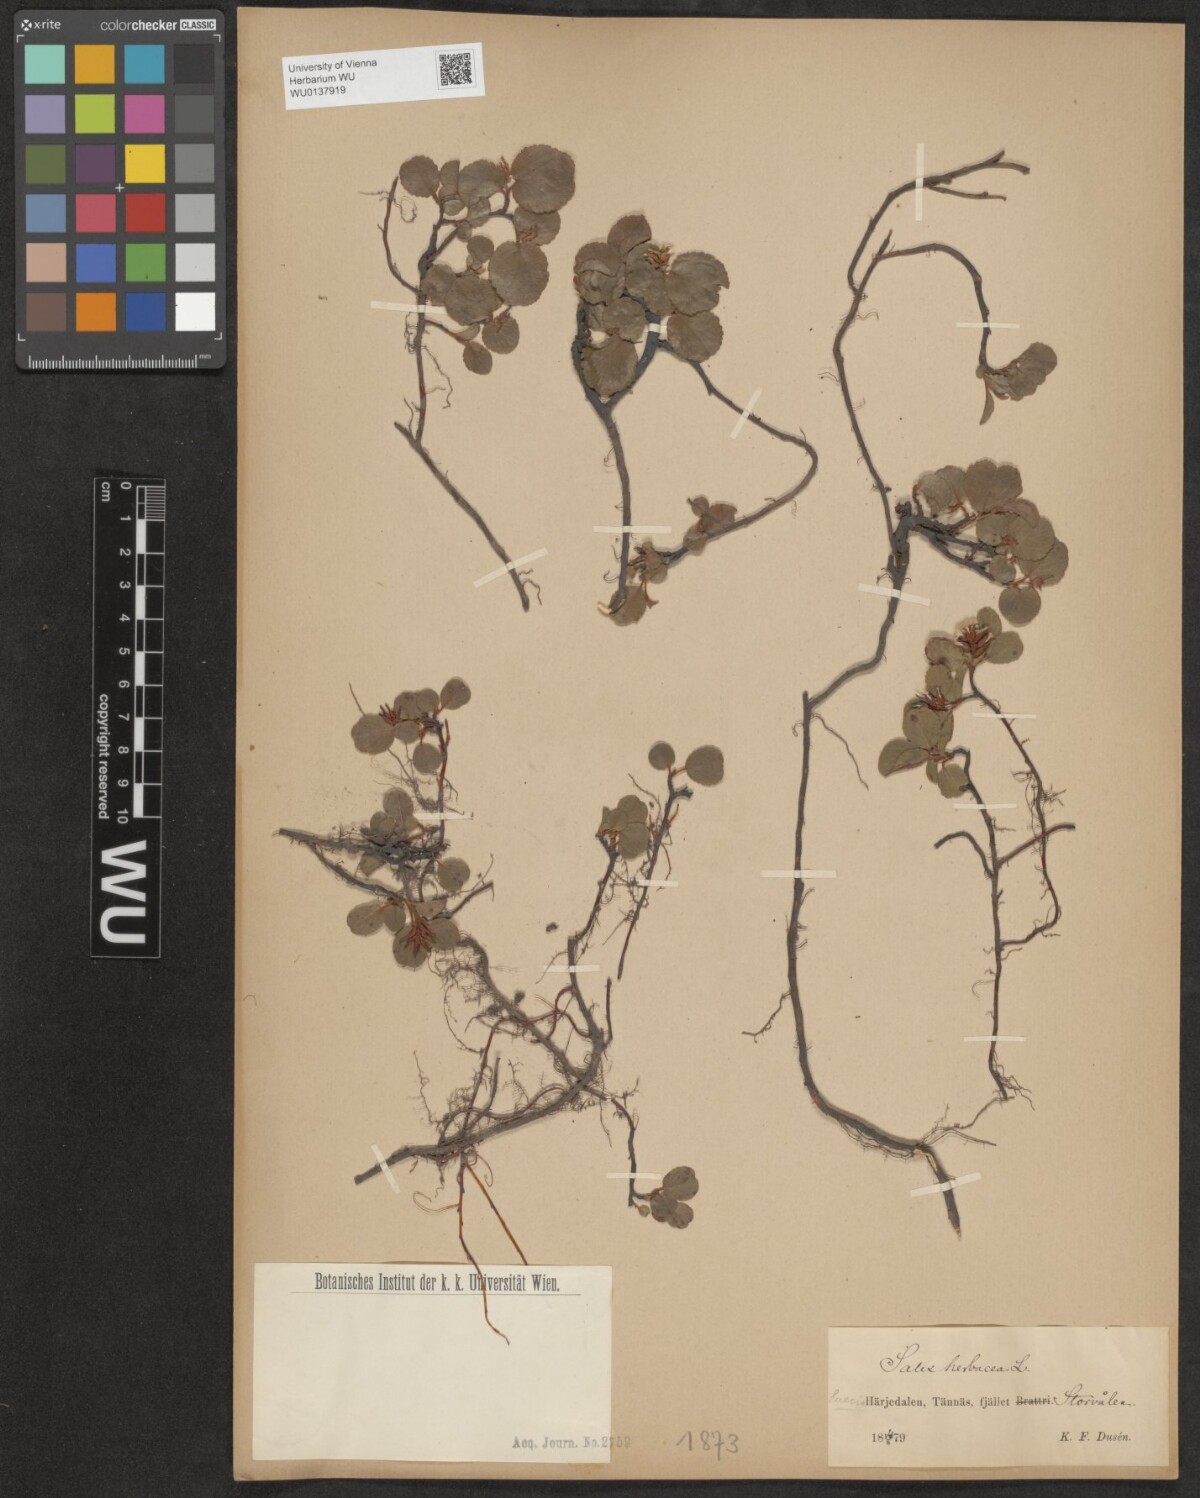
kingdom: Plantae
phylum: Tracheophyta
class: Magnoliopsida
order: Malpighiales
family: Salicaceae
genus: Salix
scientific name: Salix herbacea
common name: Dwarf willow
